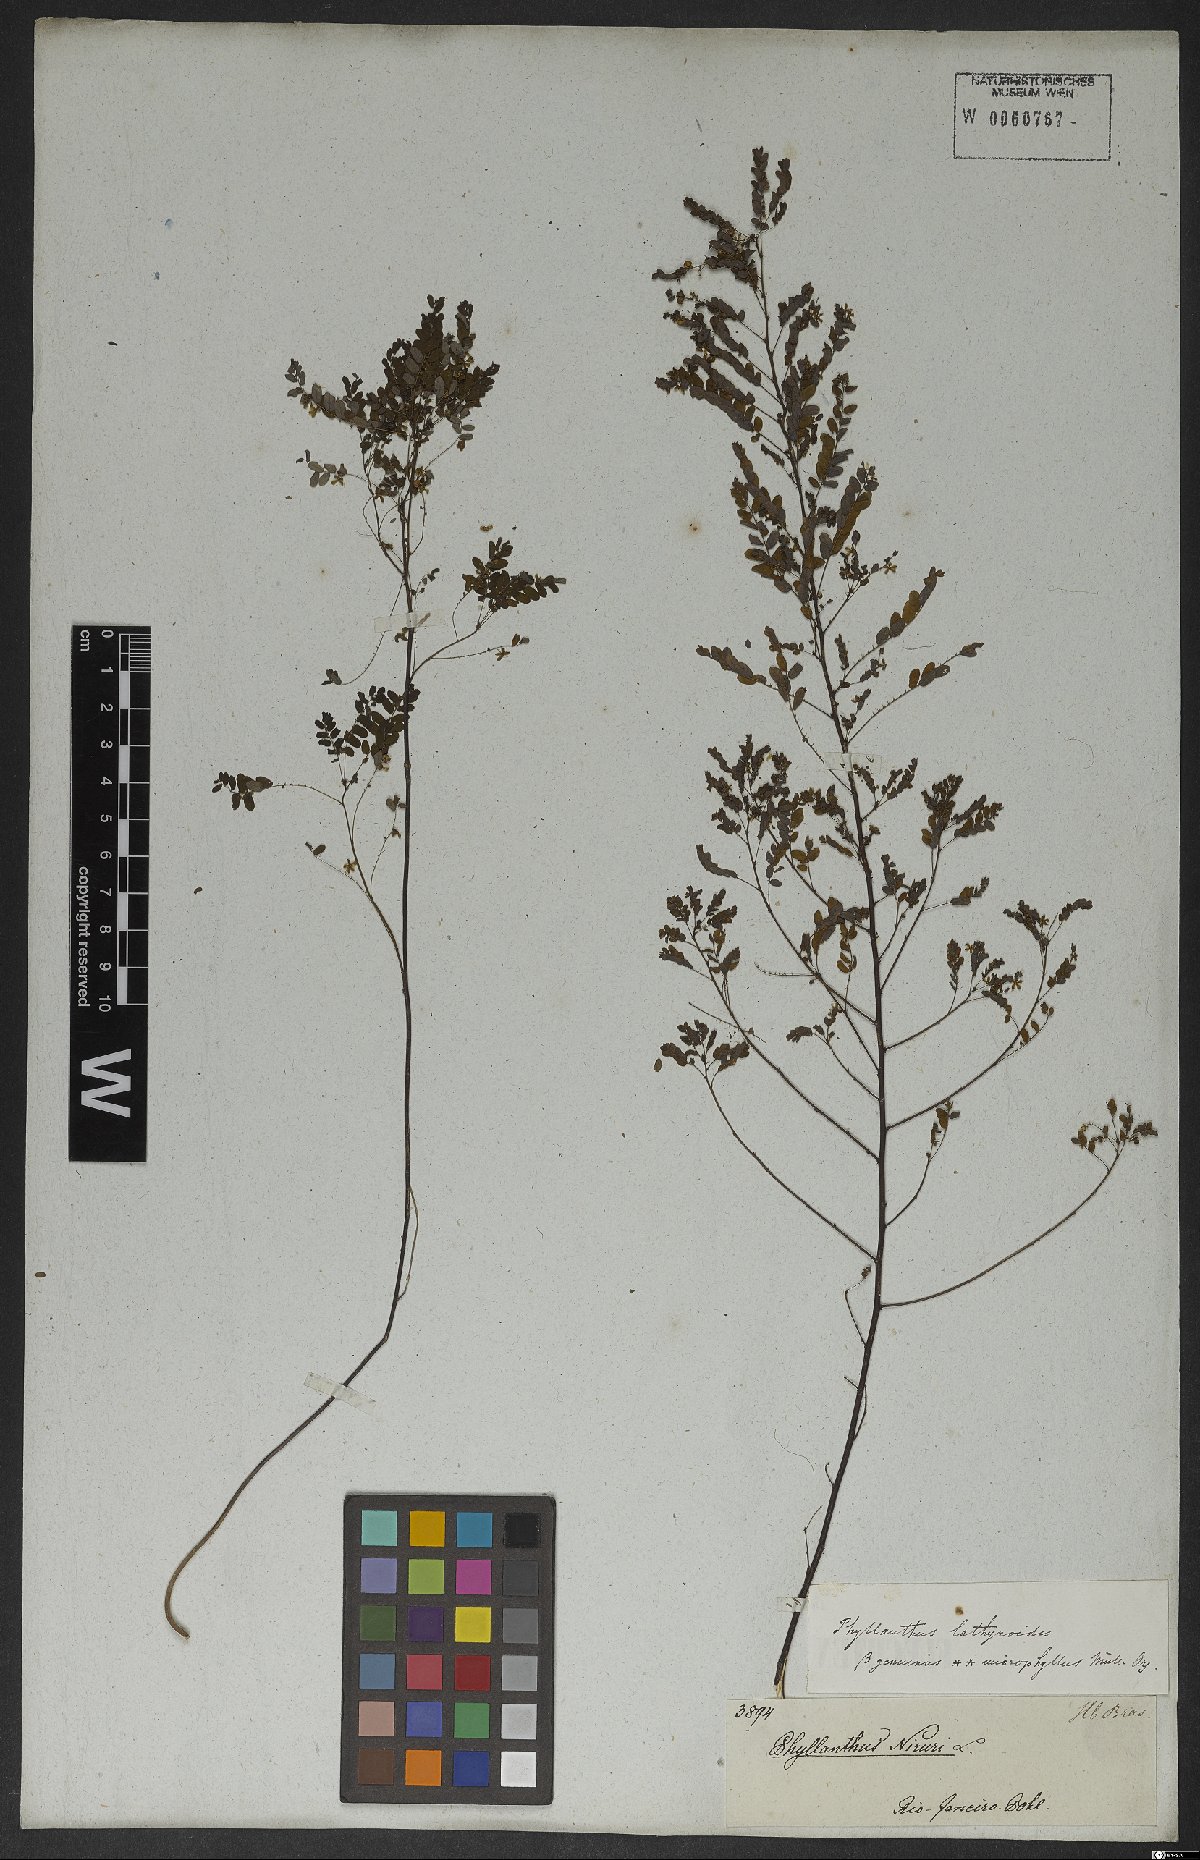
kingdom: Plantae
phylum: Tracheophyta
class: Magnoliopsida
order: Malpighiales
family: Phyllanthaceae
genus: Phyllanthus
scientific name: Phyllanthus niruri
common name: Niruri
